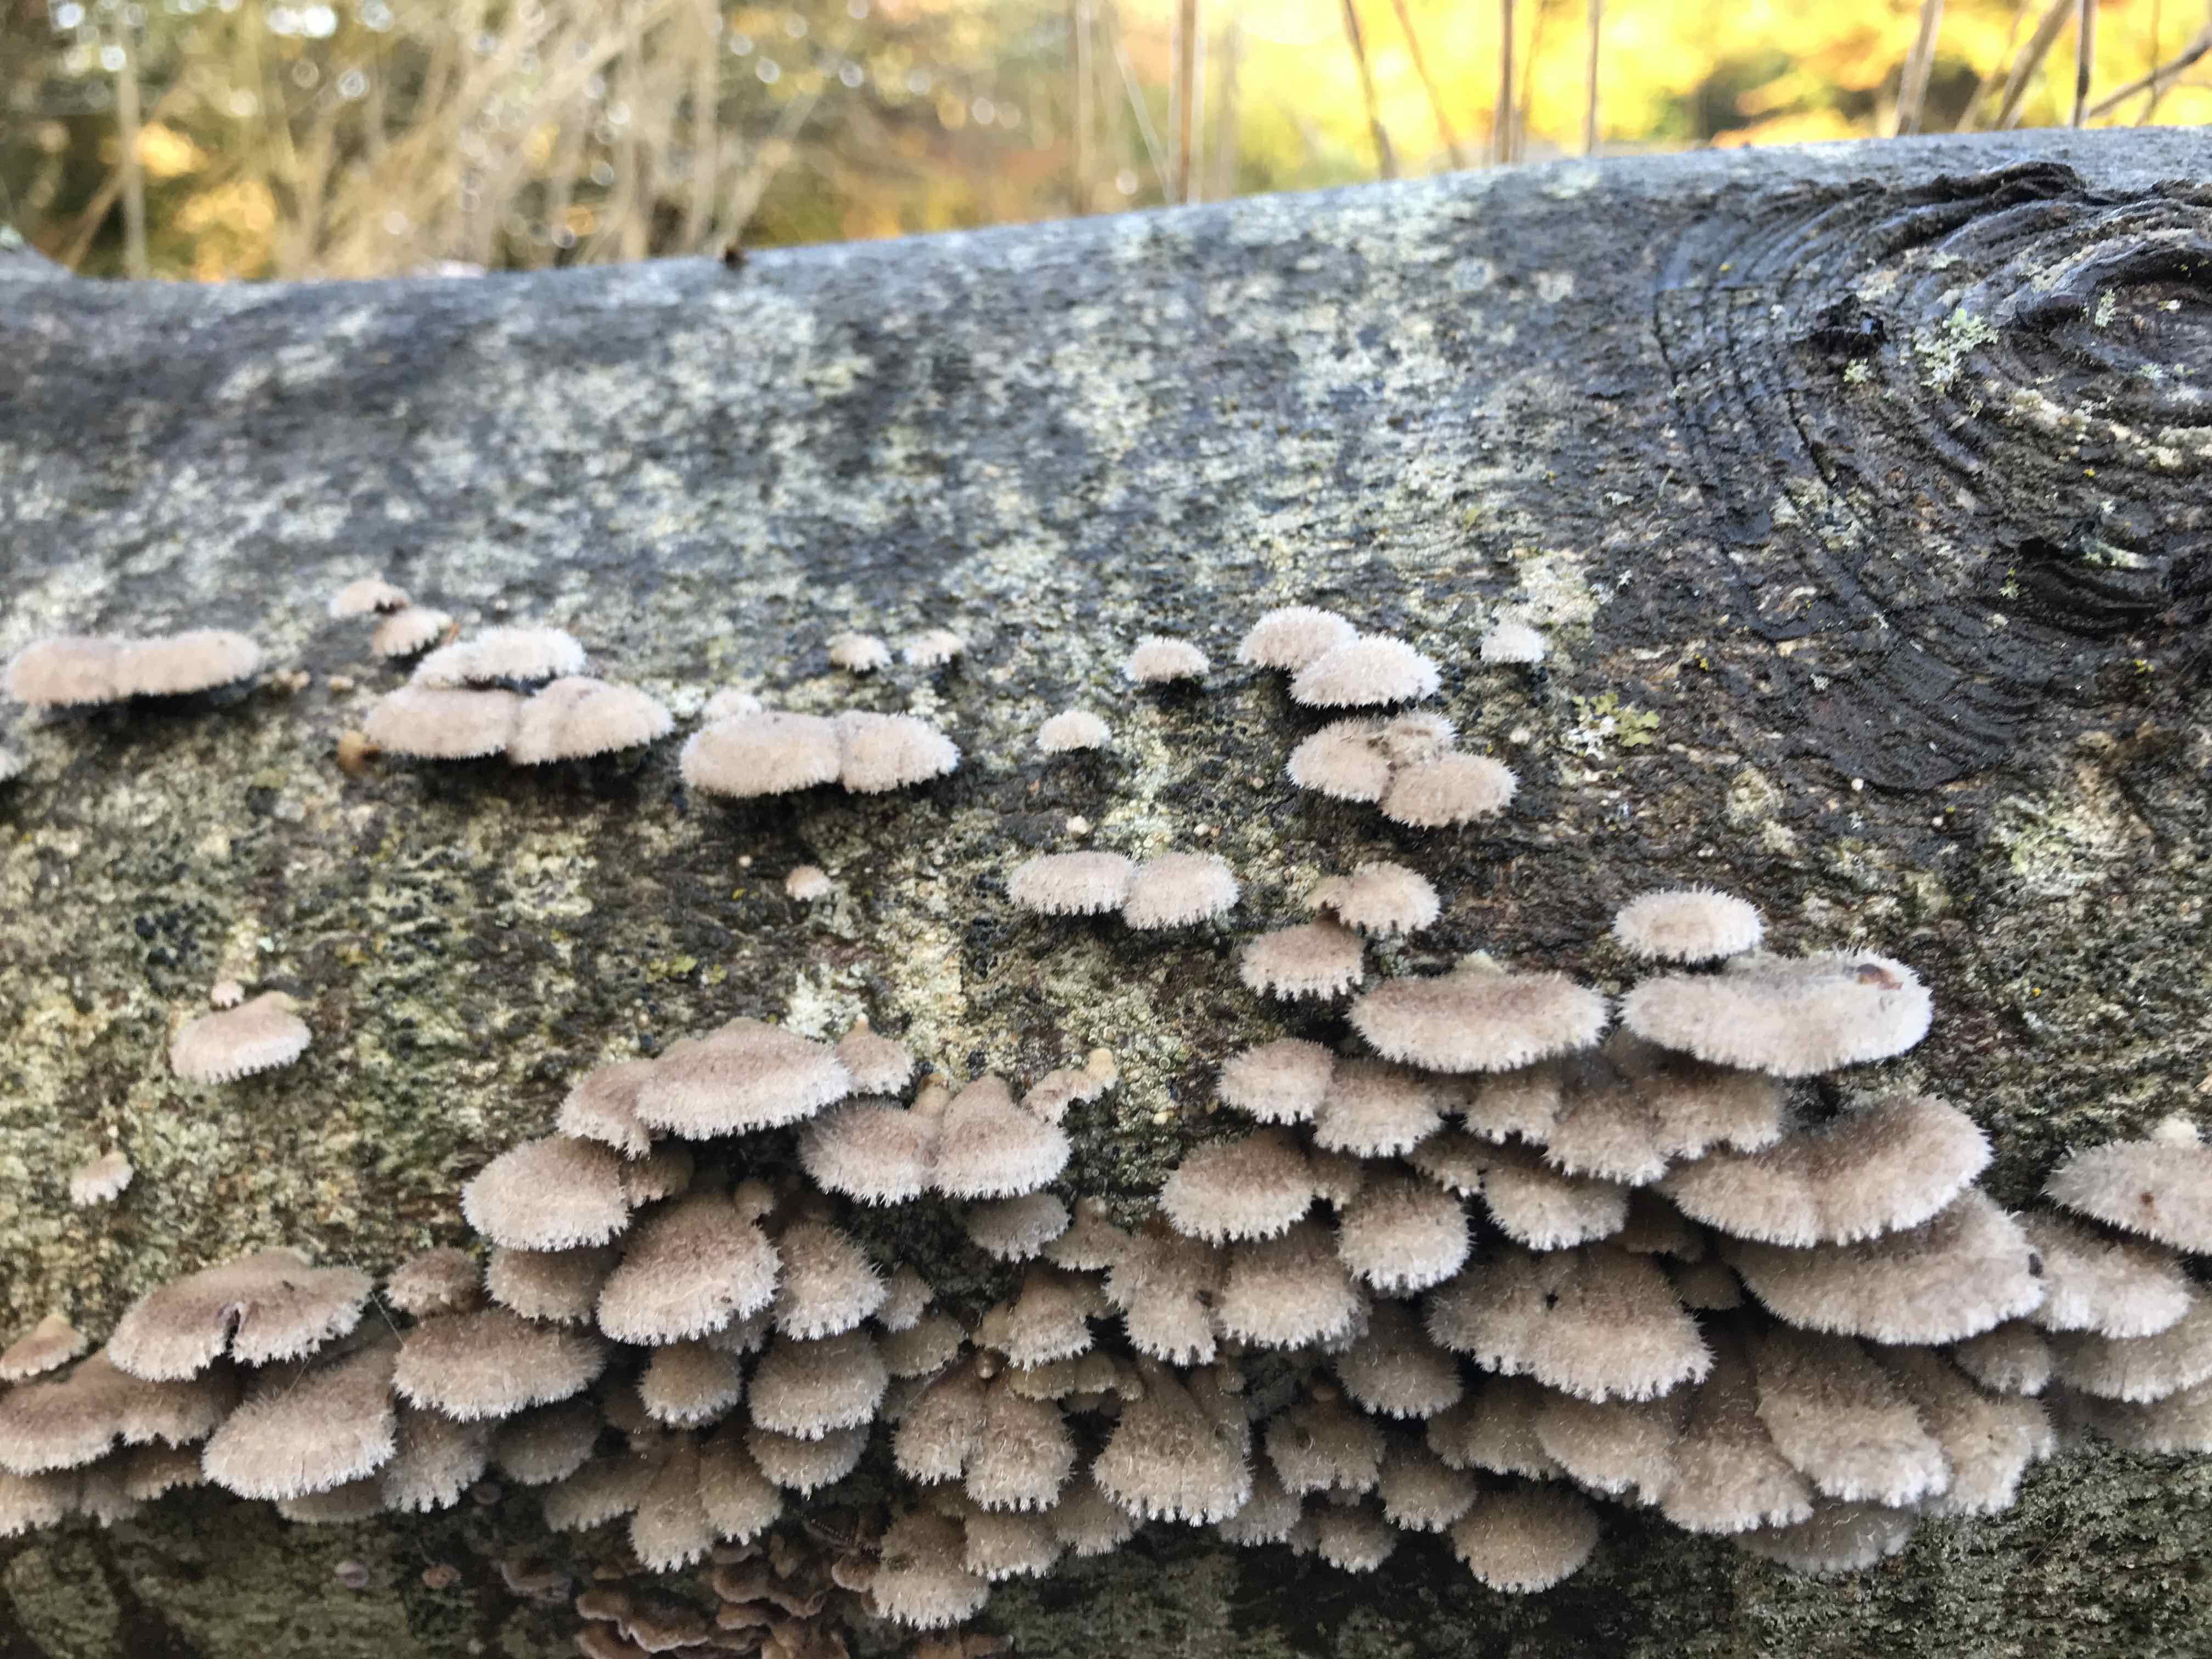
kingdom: Fungi
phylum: Basidiomycota
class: Agaricomycetes
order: Agaricales
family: Schizophyllaceae
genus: Schizophyllum
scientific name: Schizophyllum commune
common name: kløvblad
